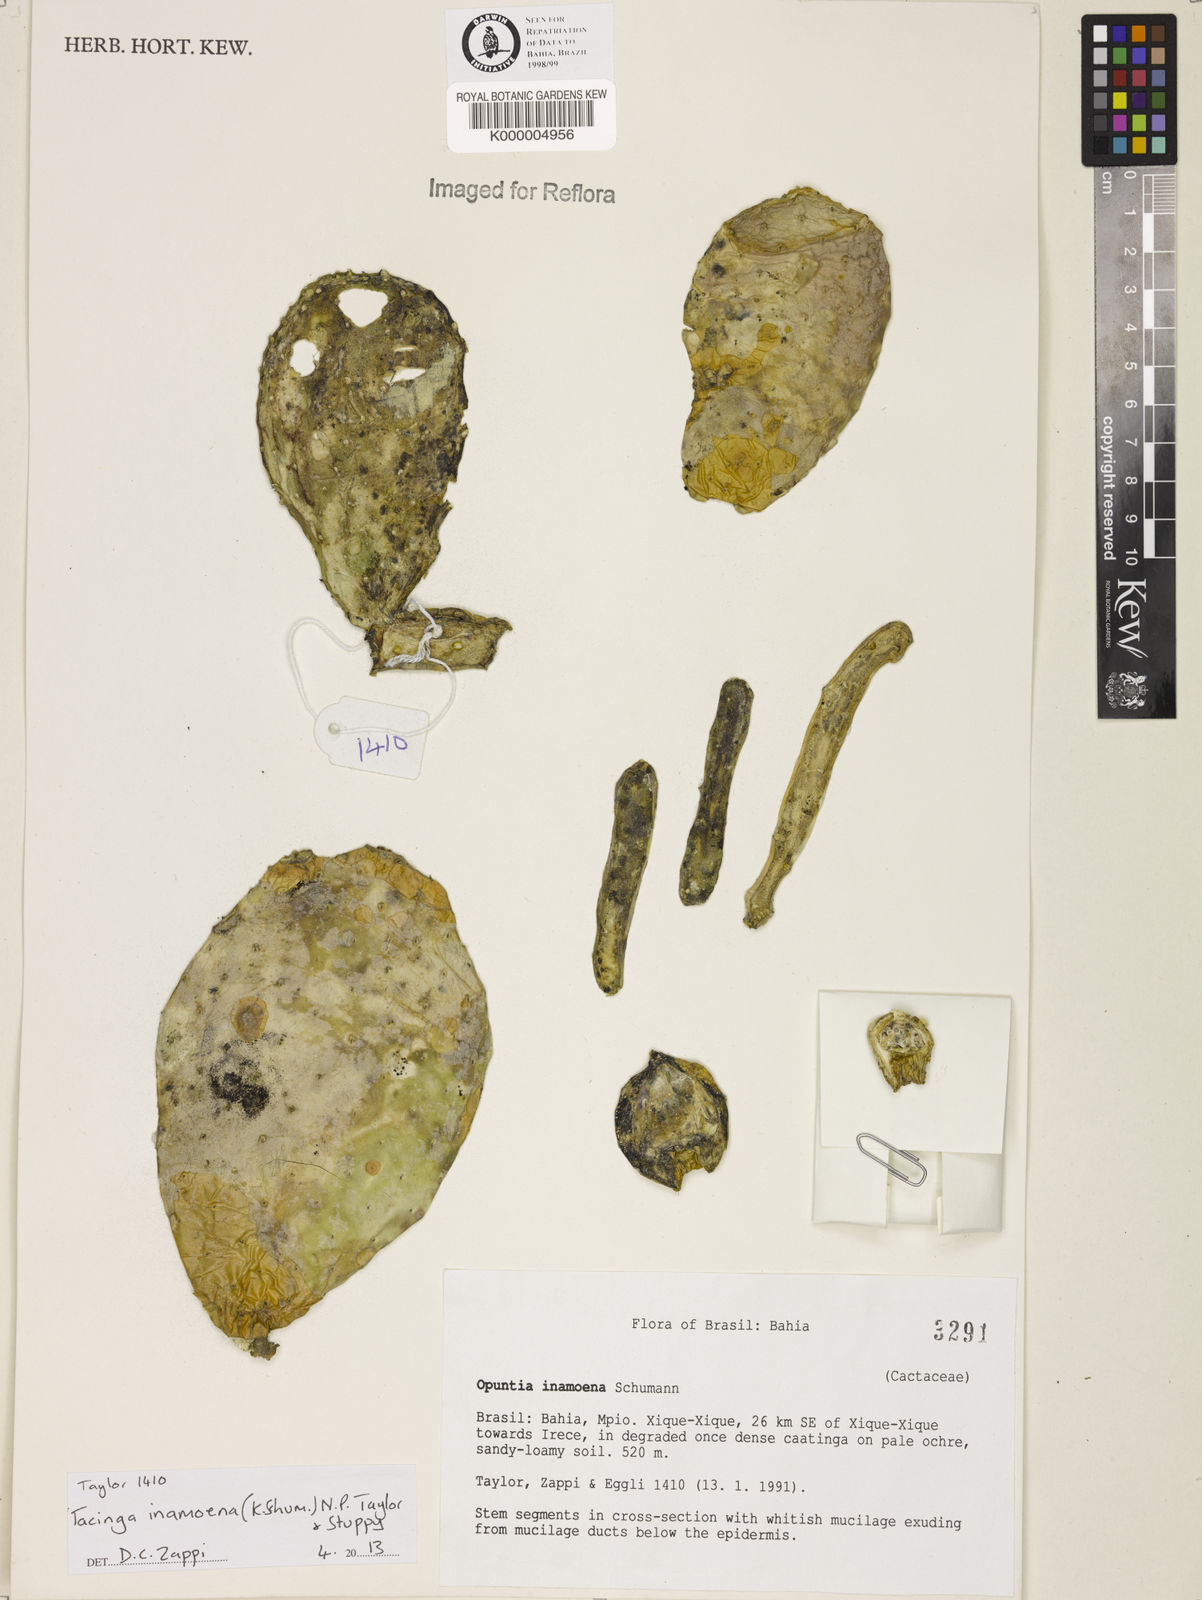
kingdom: Plantae
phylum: Tracheophyta
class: Magnoliopsida
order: Caryophyllales
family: Cactaceae
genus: Tacinga
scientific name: Tacinga inamoena
